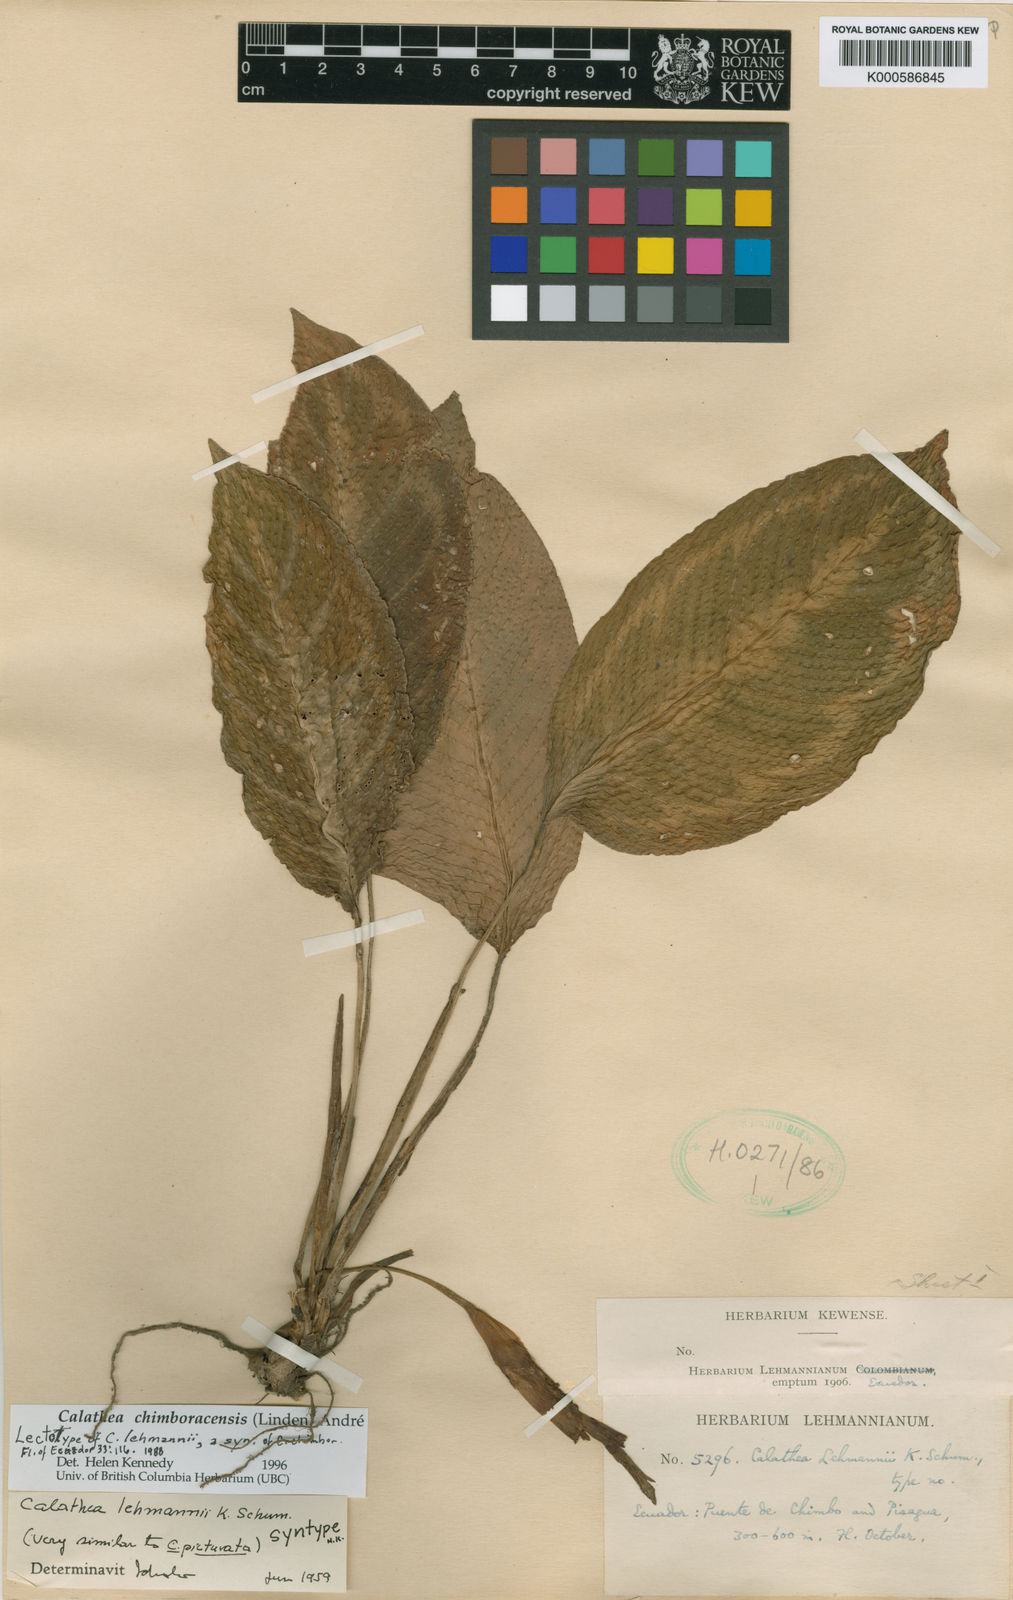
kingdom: Plantae
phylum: Tracheophyta
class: Liliopsida
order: Zingiberales
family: Marantaceae
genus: Goeppertia
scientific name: Goeppertia chimboracensis
